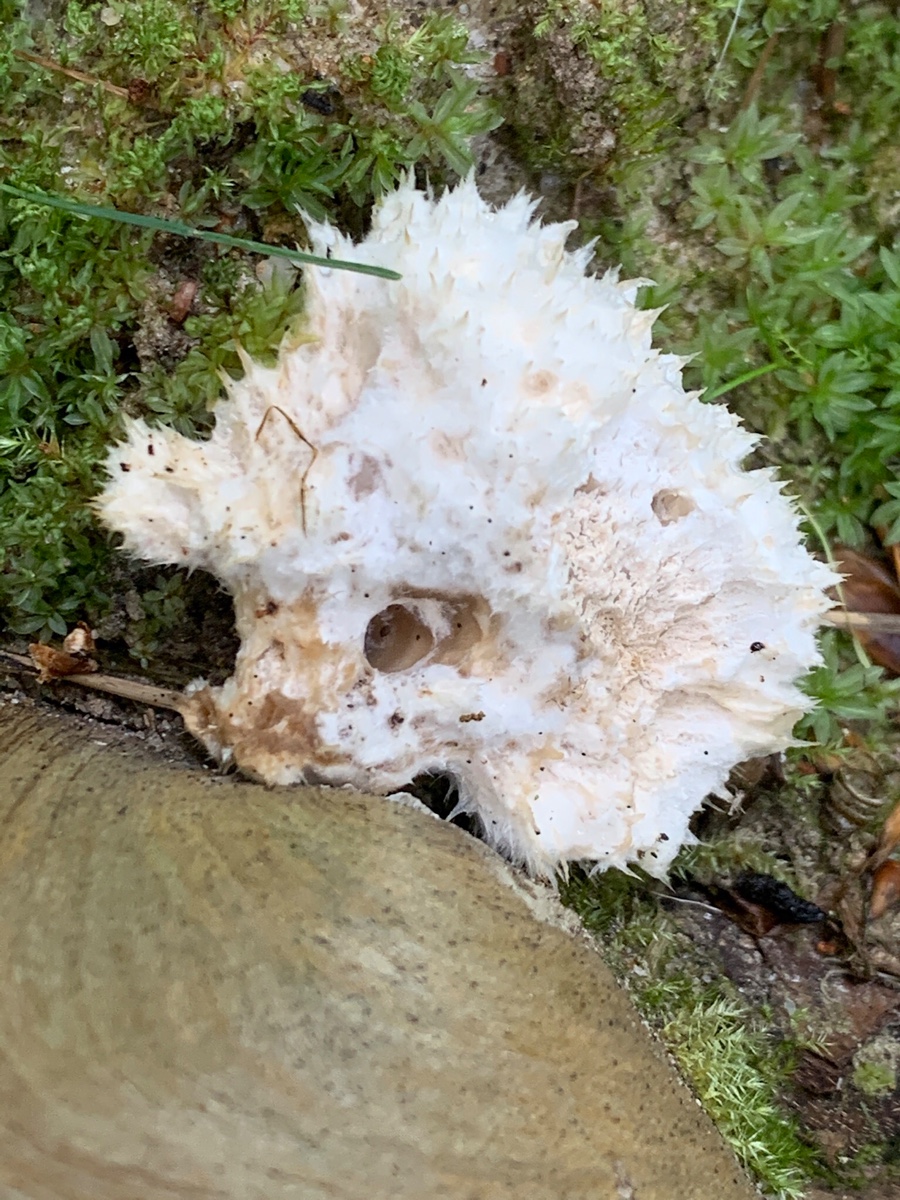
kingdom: Fungi
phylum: Basidiomycota
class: Agaricomycetes
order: Polyporales
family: Dacryobolaceae
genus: Postia
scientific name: Postia ptychogaster
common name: støvende kødporesvamp
